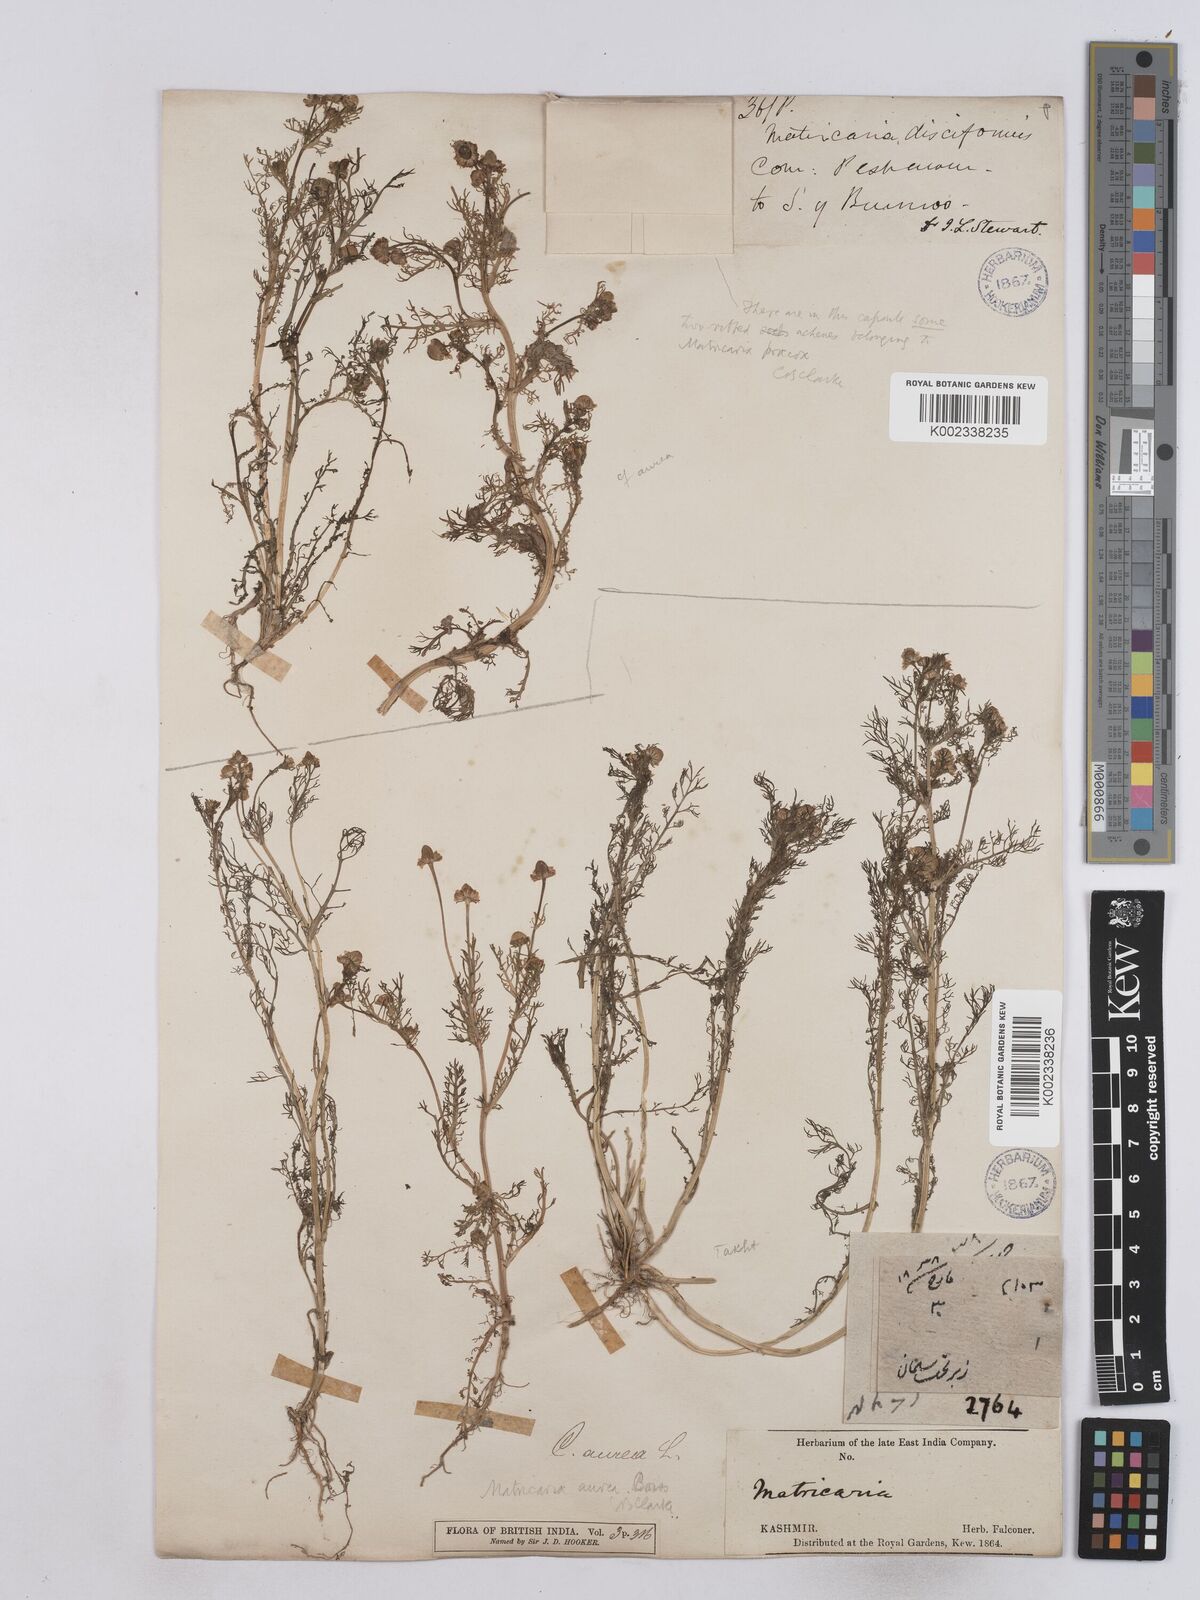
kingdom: Plantae
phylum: Tracheophyta
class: Magnoliopsida
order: Asterales
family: Asteraceae
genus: Matricaria
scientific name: Matricaria aurea
